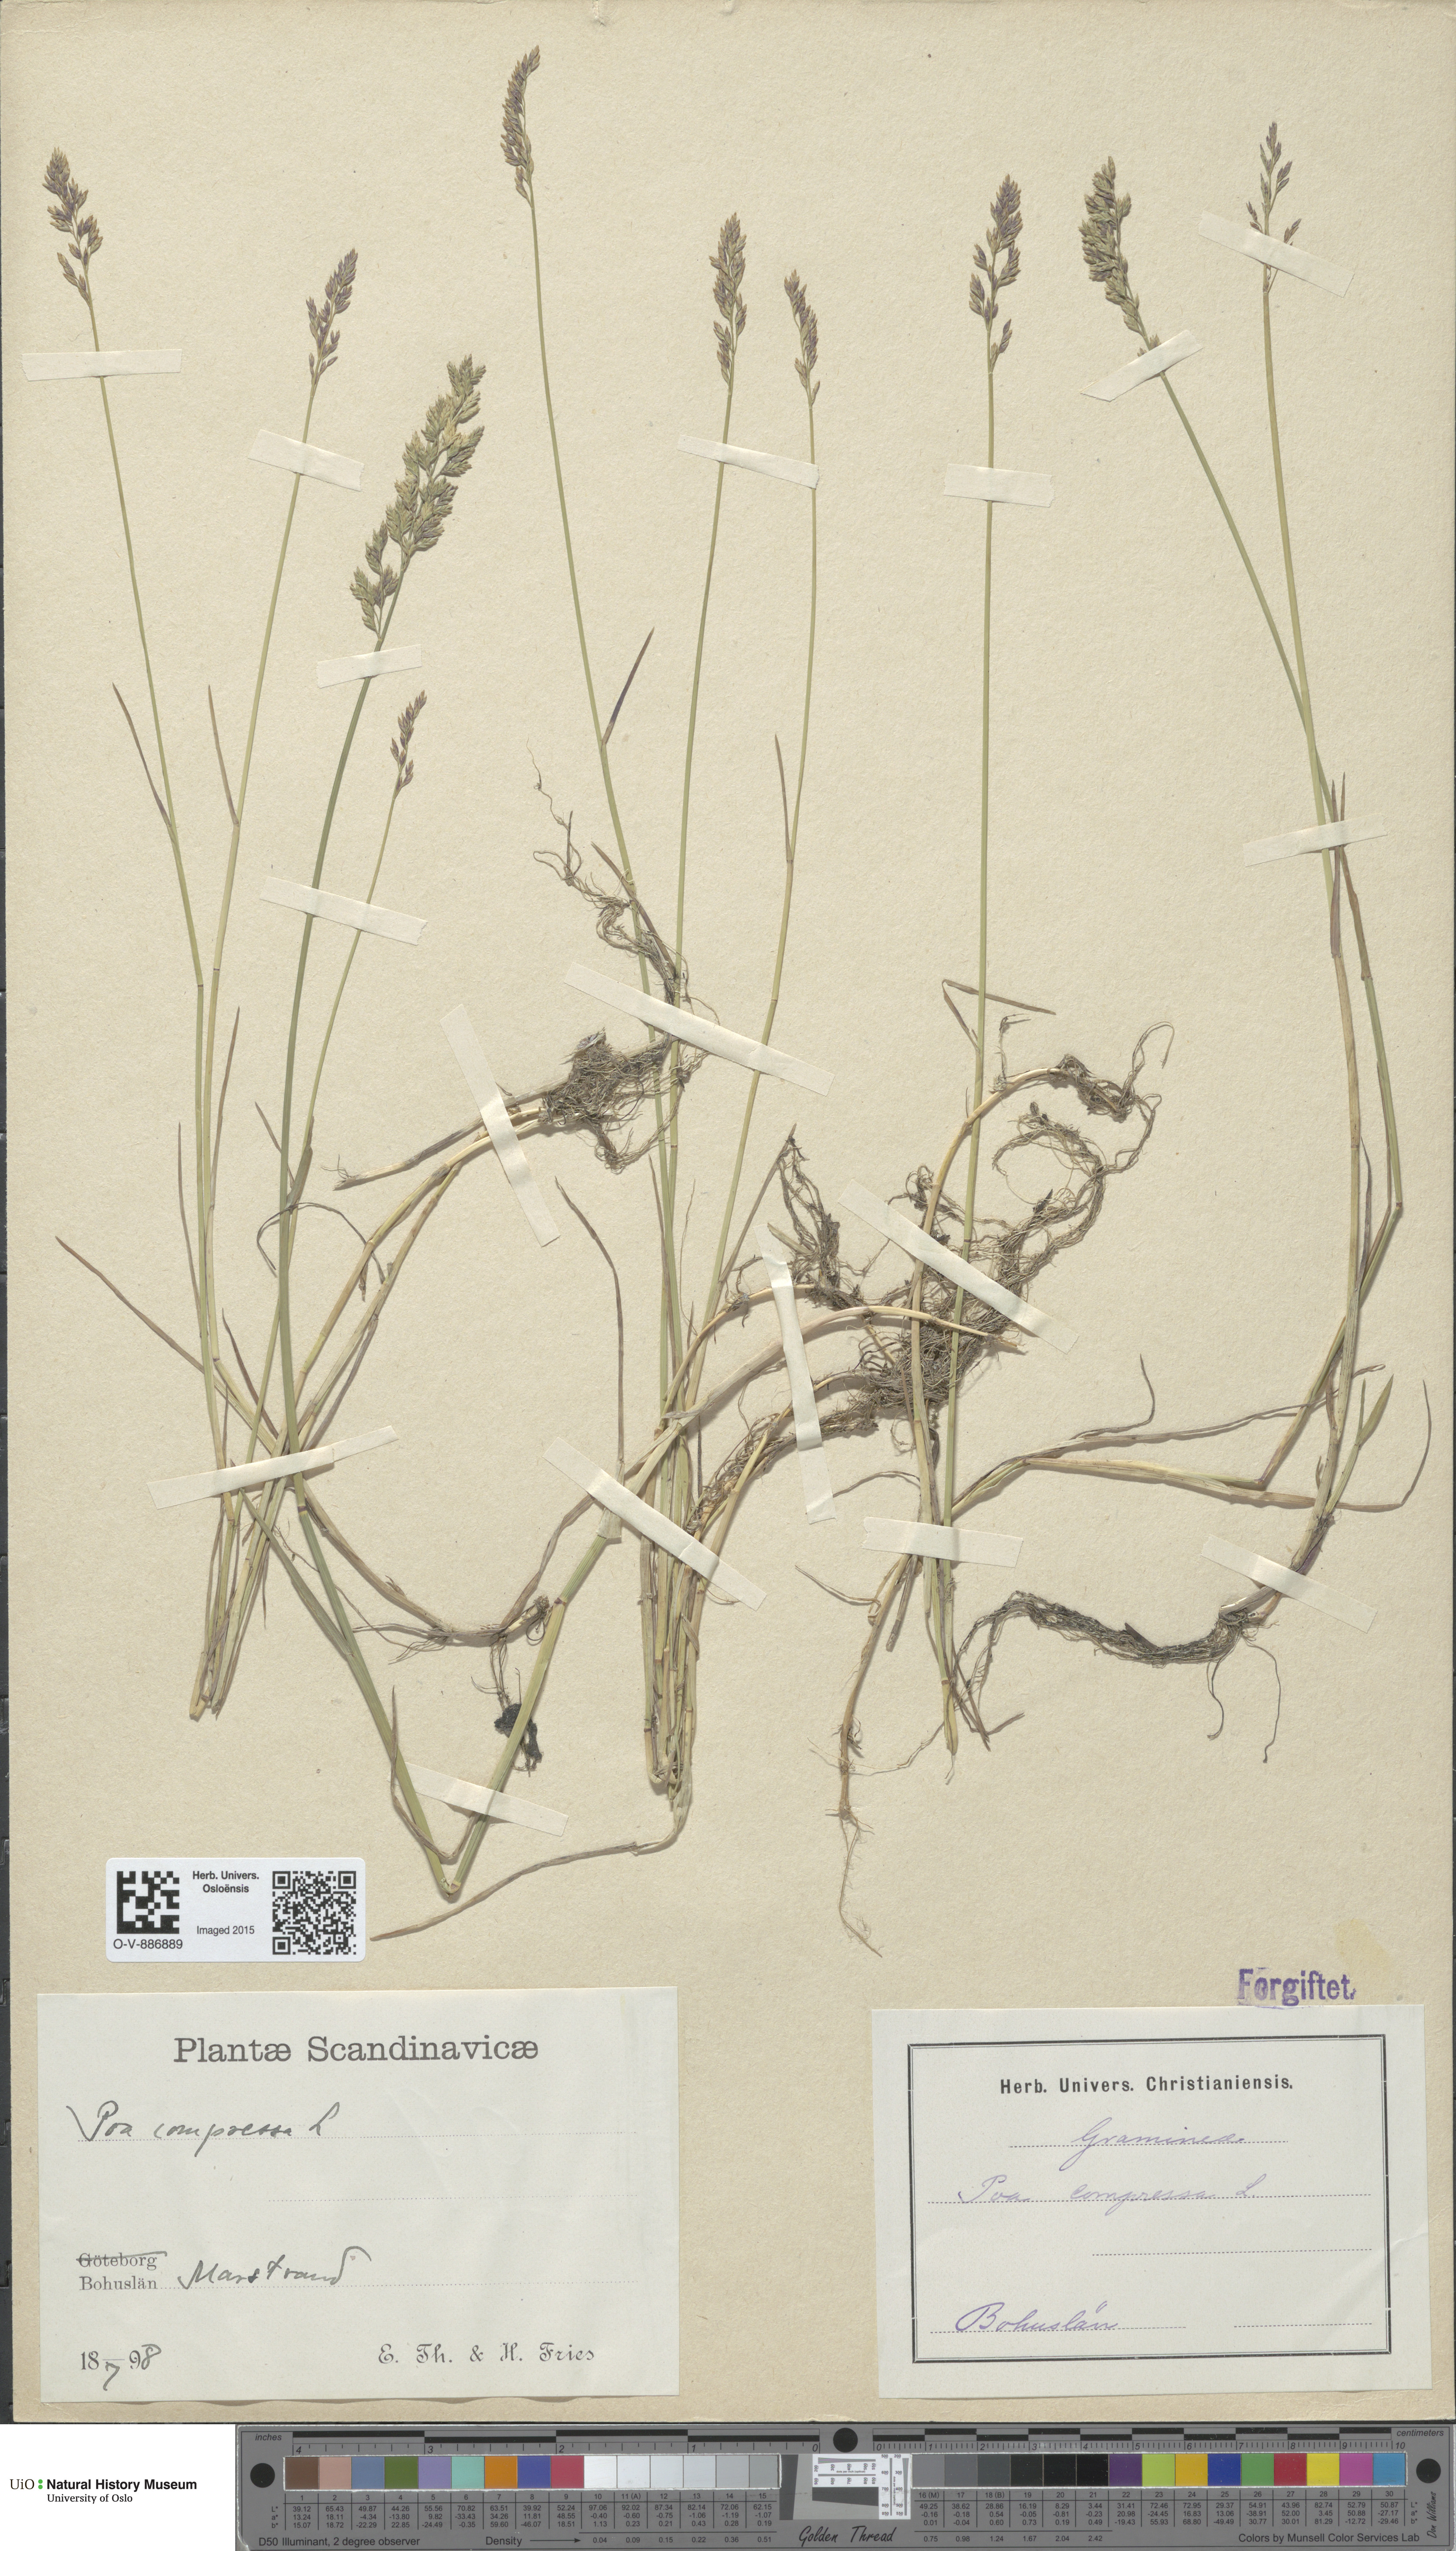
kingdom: Plantae
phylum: Tracheophyta
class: Liliopsida
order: Poales
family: Poaceae
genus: Poa
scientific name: Poa compressa
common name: Canada bluegrass
